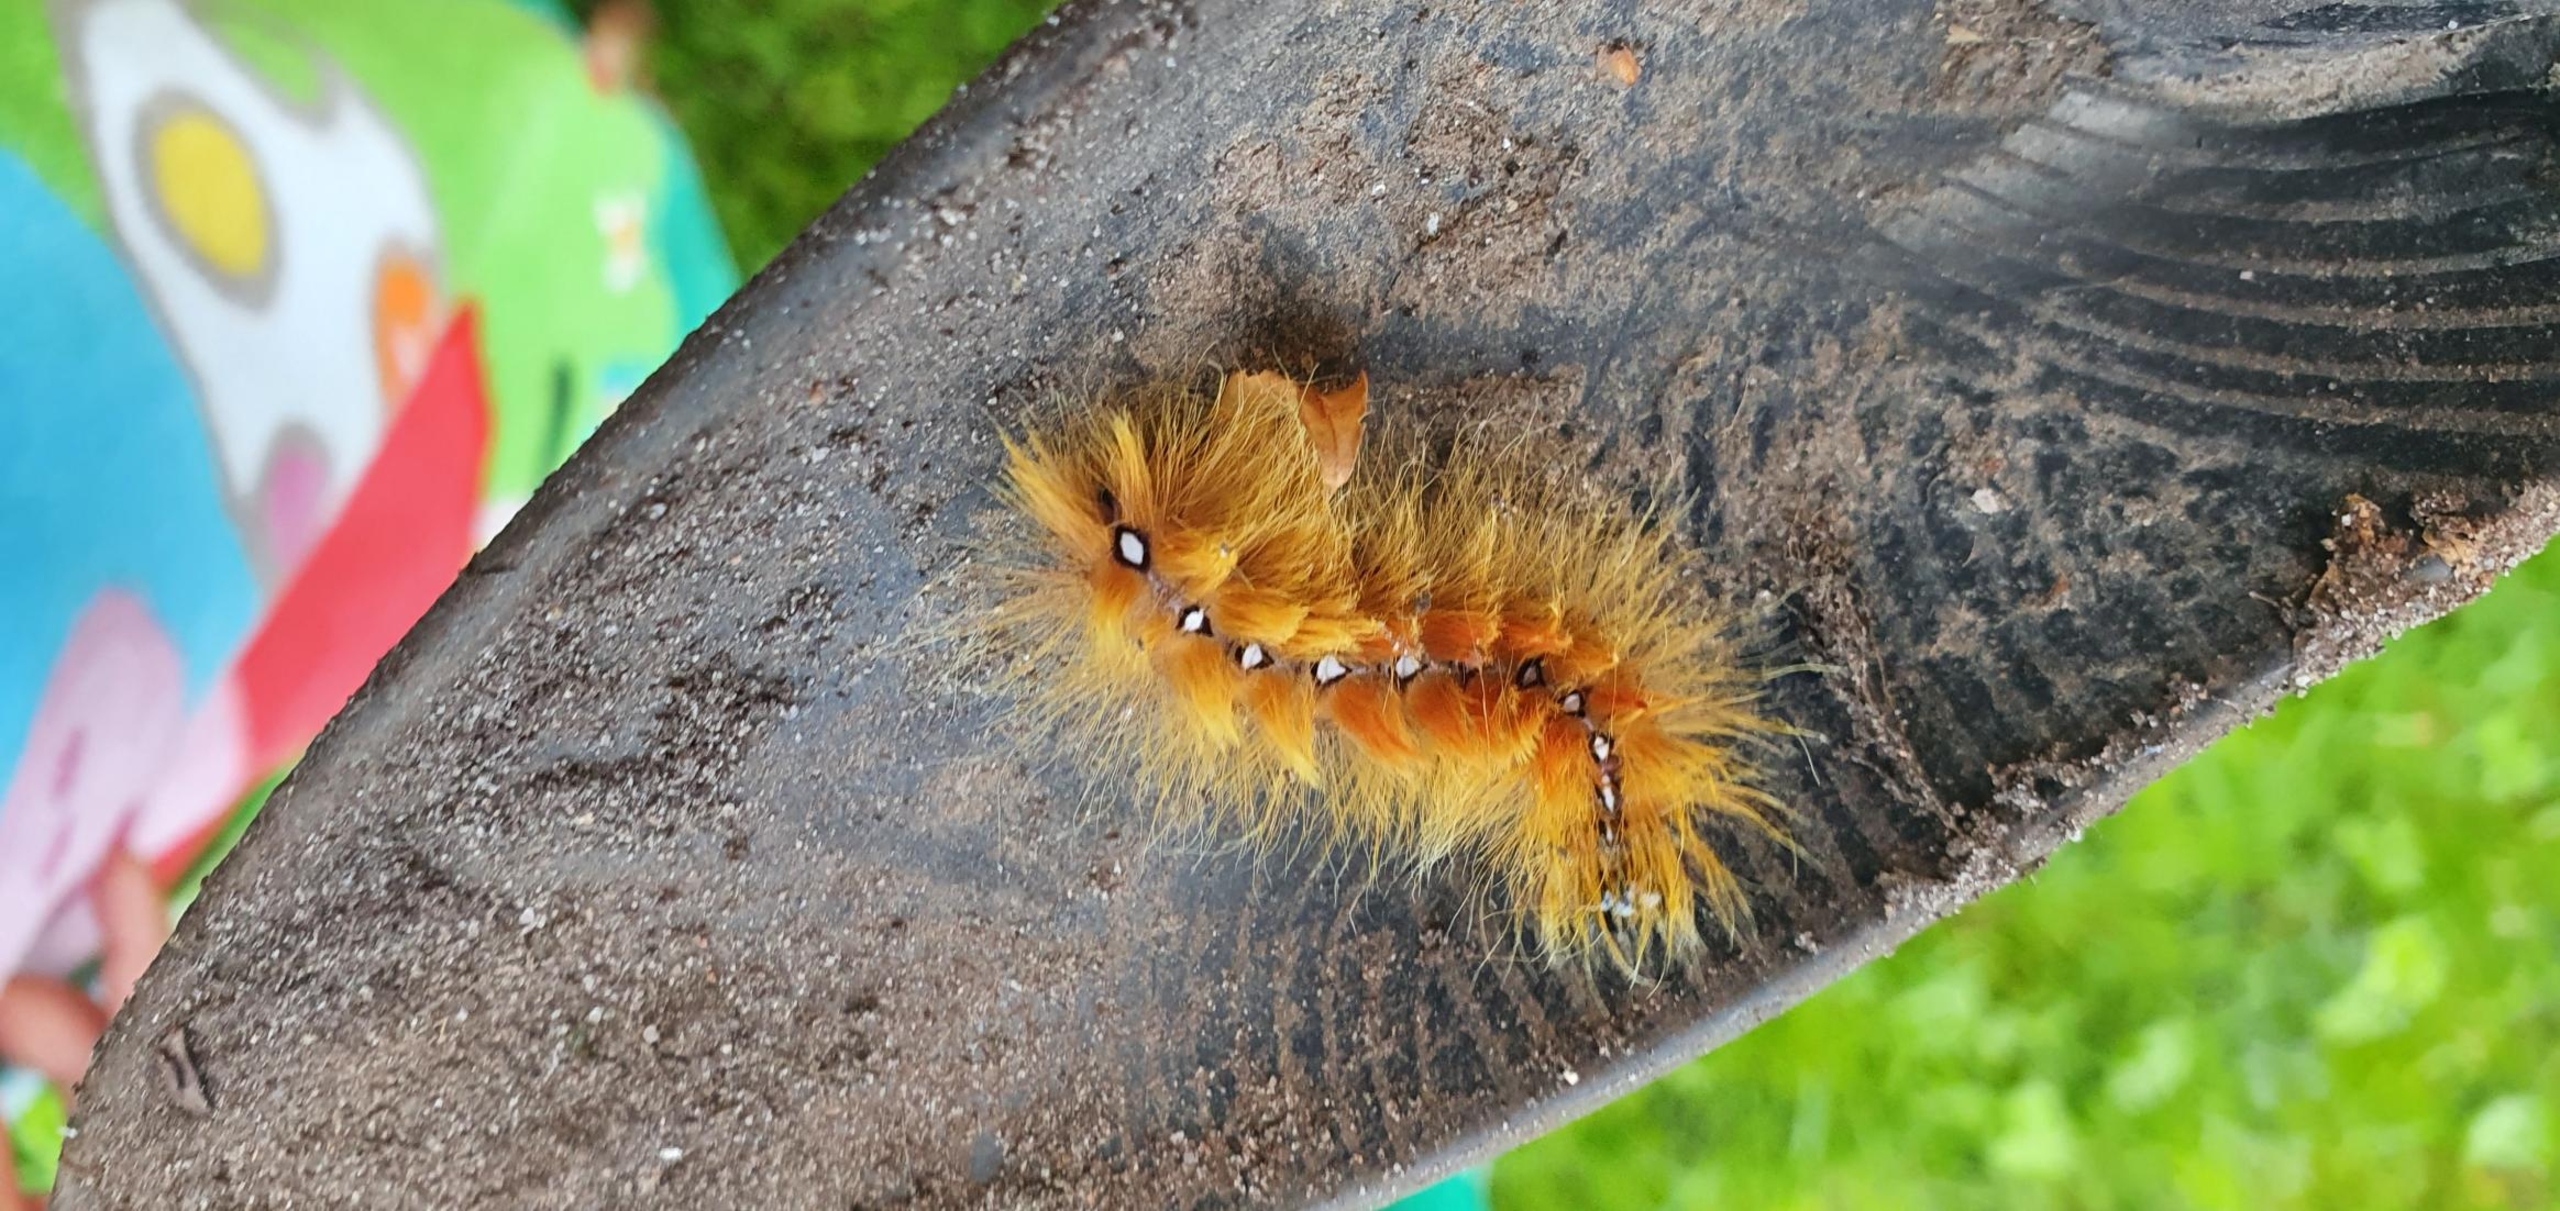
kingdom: Animalia
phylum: Arthropoda
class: Insecta
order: Lepidoptera
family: Noctuidae
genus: Acronicta
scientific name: Acronicta aceris
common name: Ahornugle
